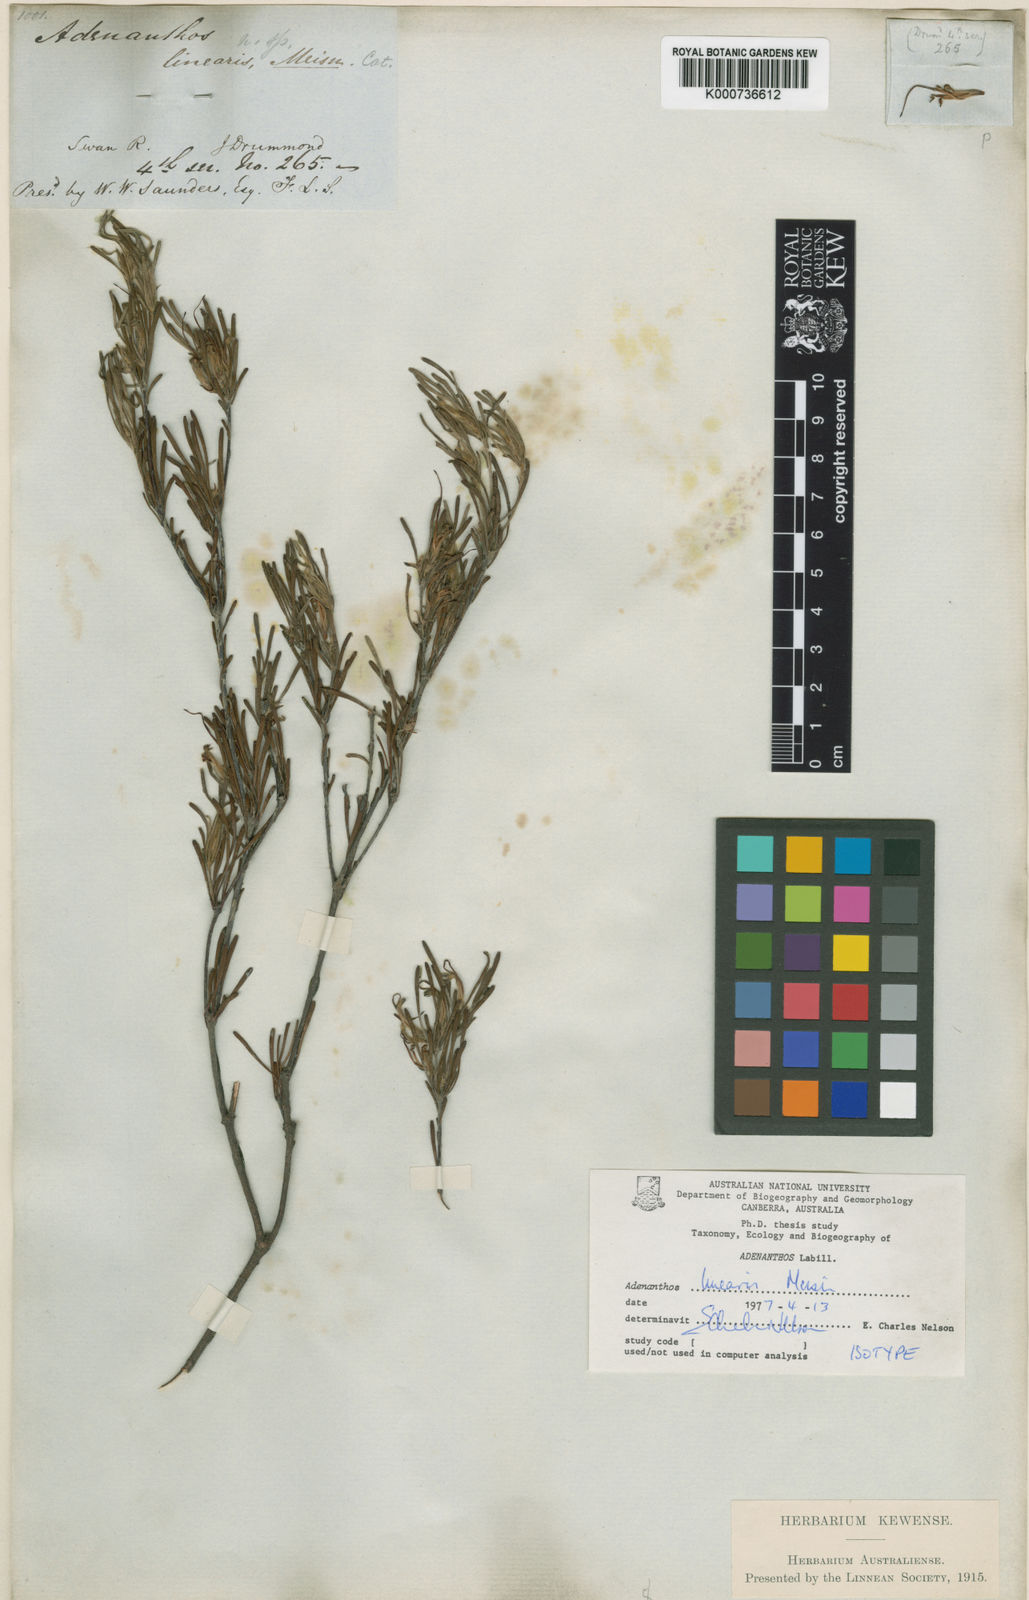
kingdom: Plantae
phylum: Tracheophyta
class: Magnoliopsida
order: Proteales
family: Proteaceae
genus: Adenanthos
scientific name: Adenanthos linearis
